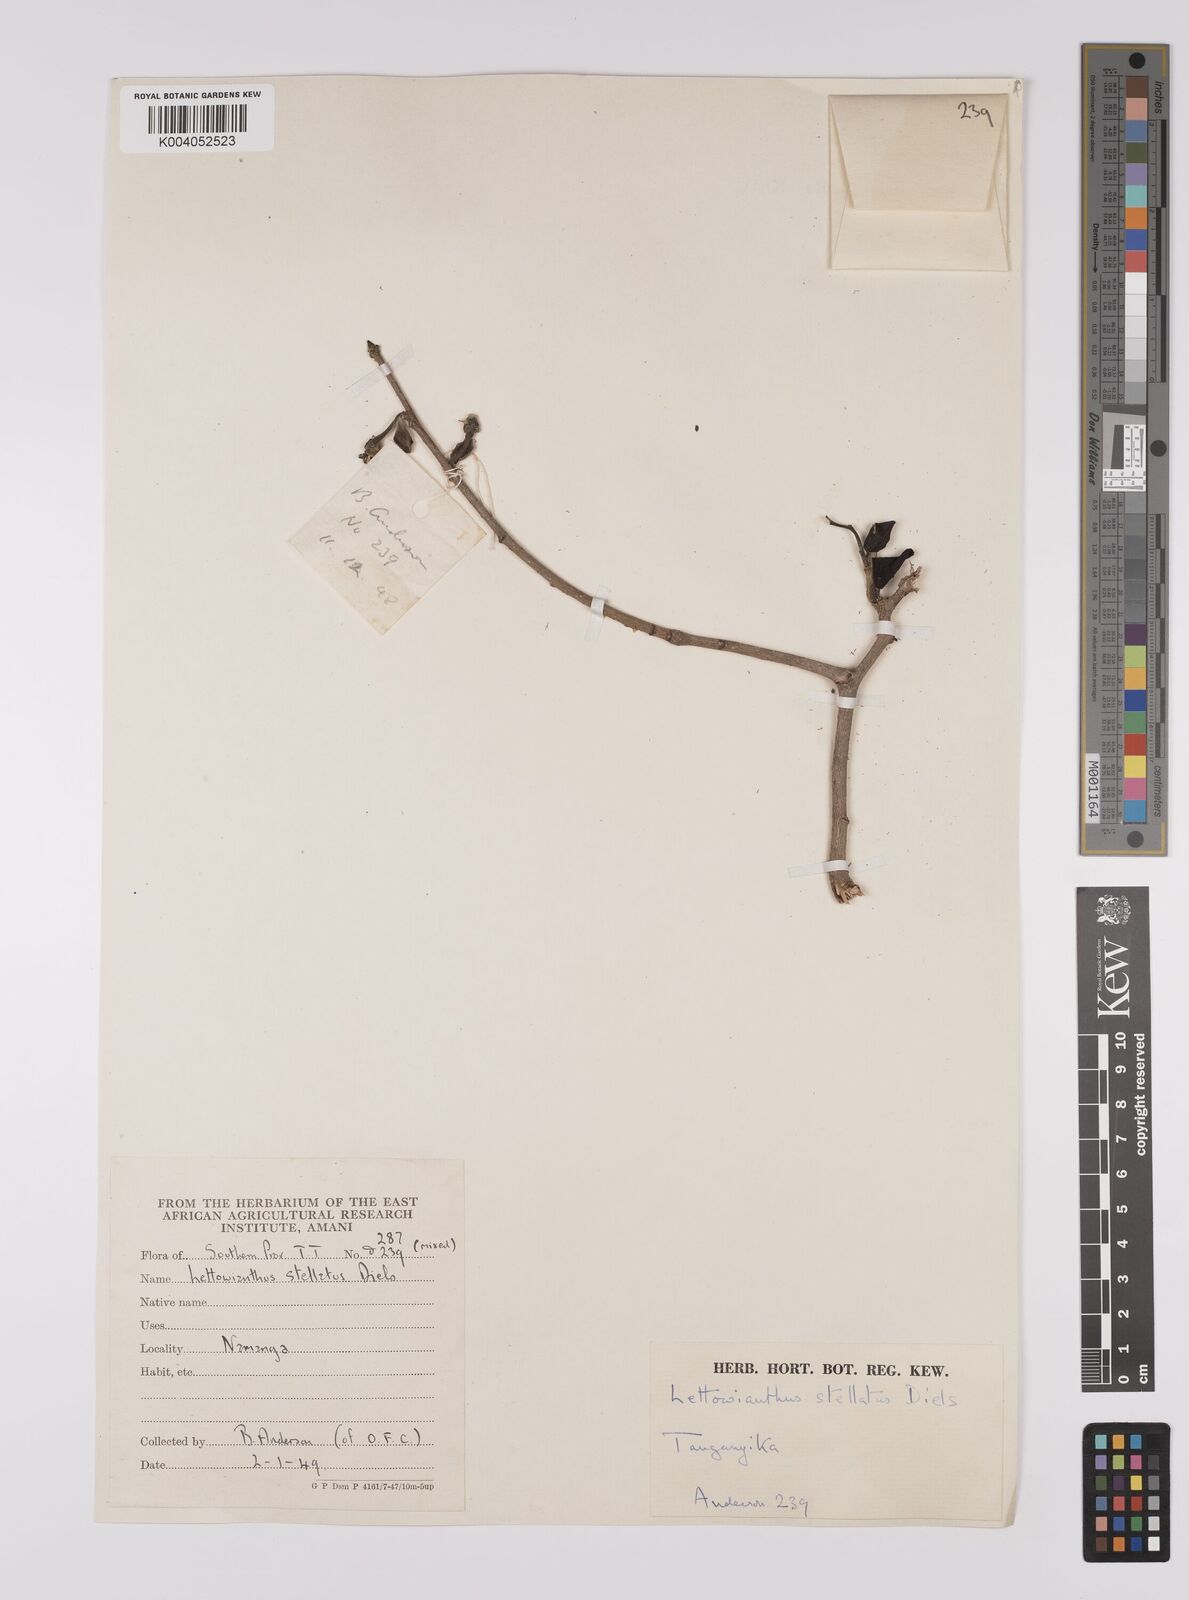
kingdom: Plantae
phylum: Tracheophyta
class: Magnoliopsida
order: Magnoliales
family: Annonaceae
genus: Lettowianthus
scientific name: Lettowianthus stellatus
